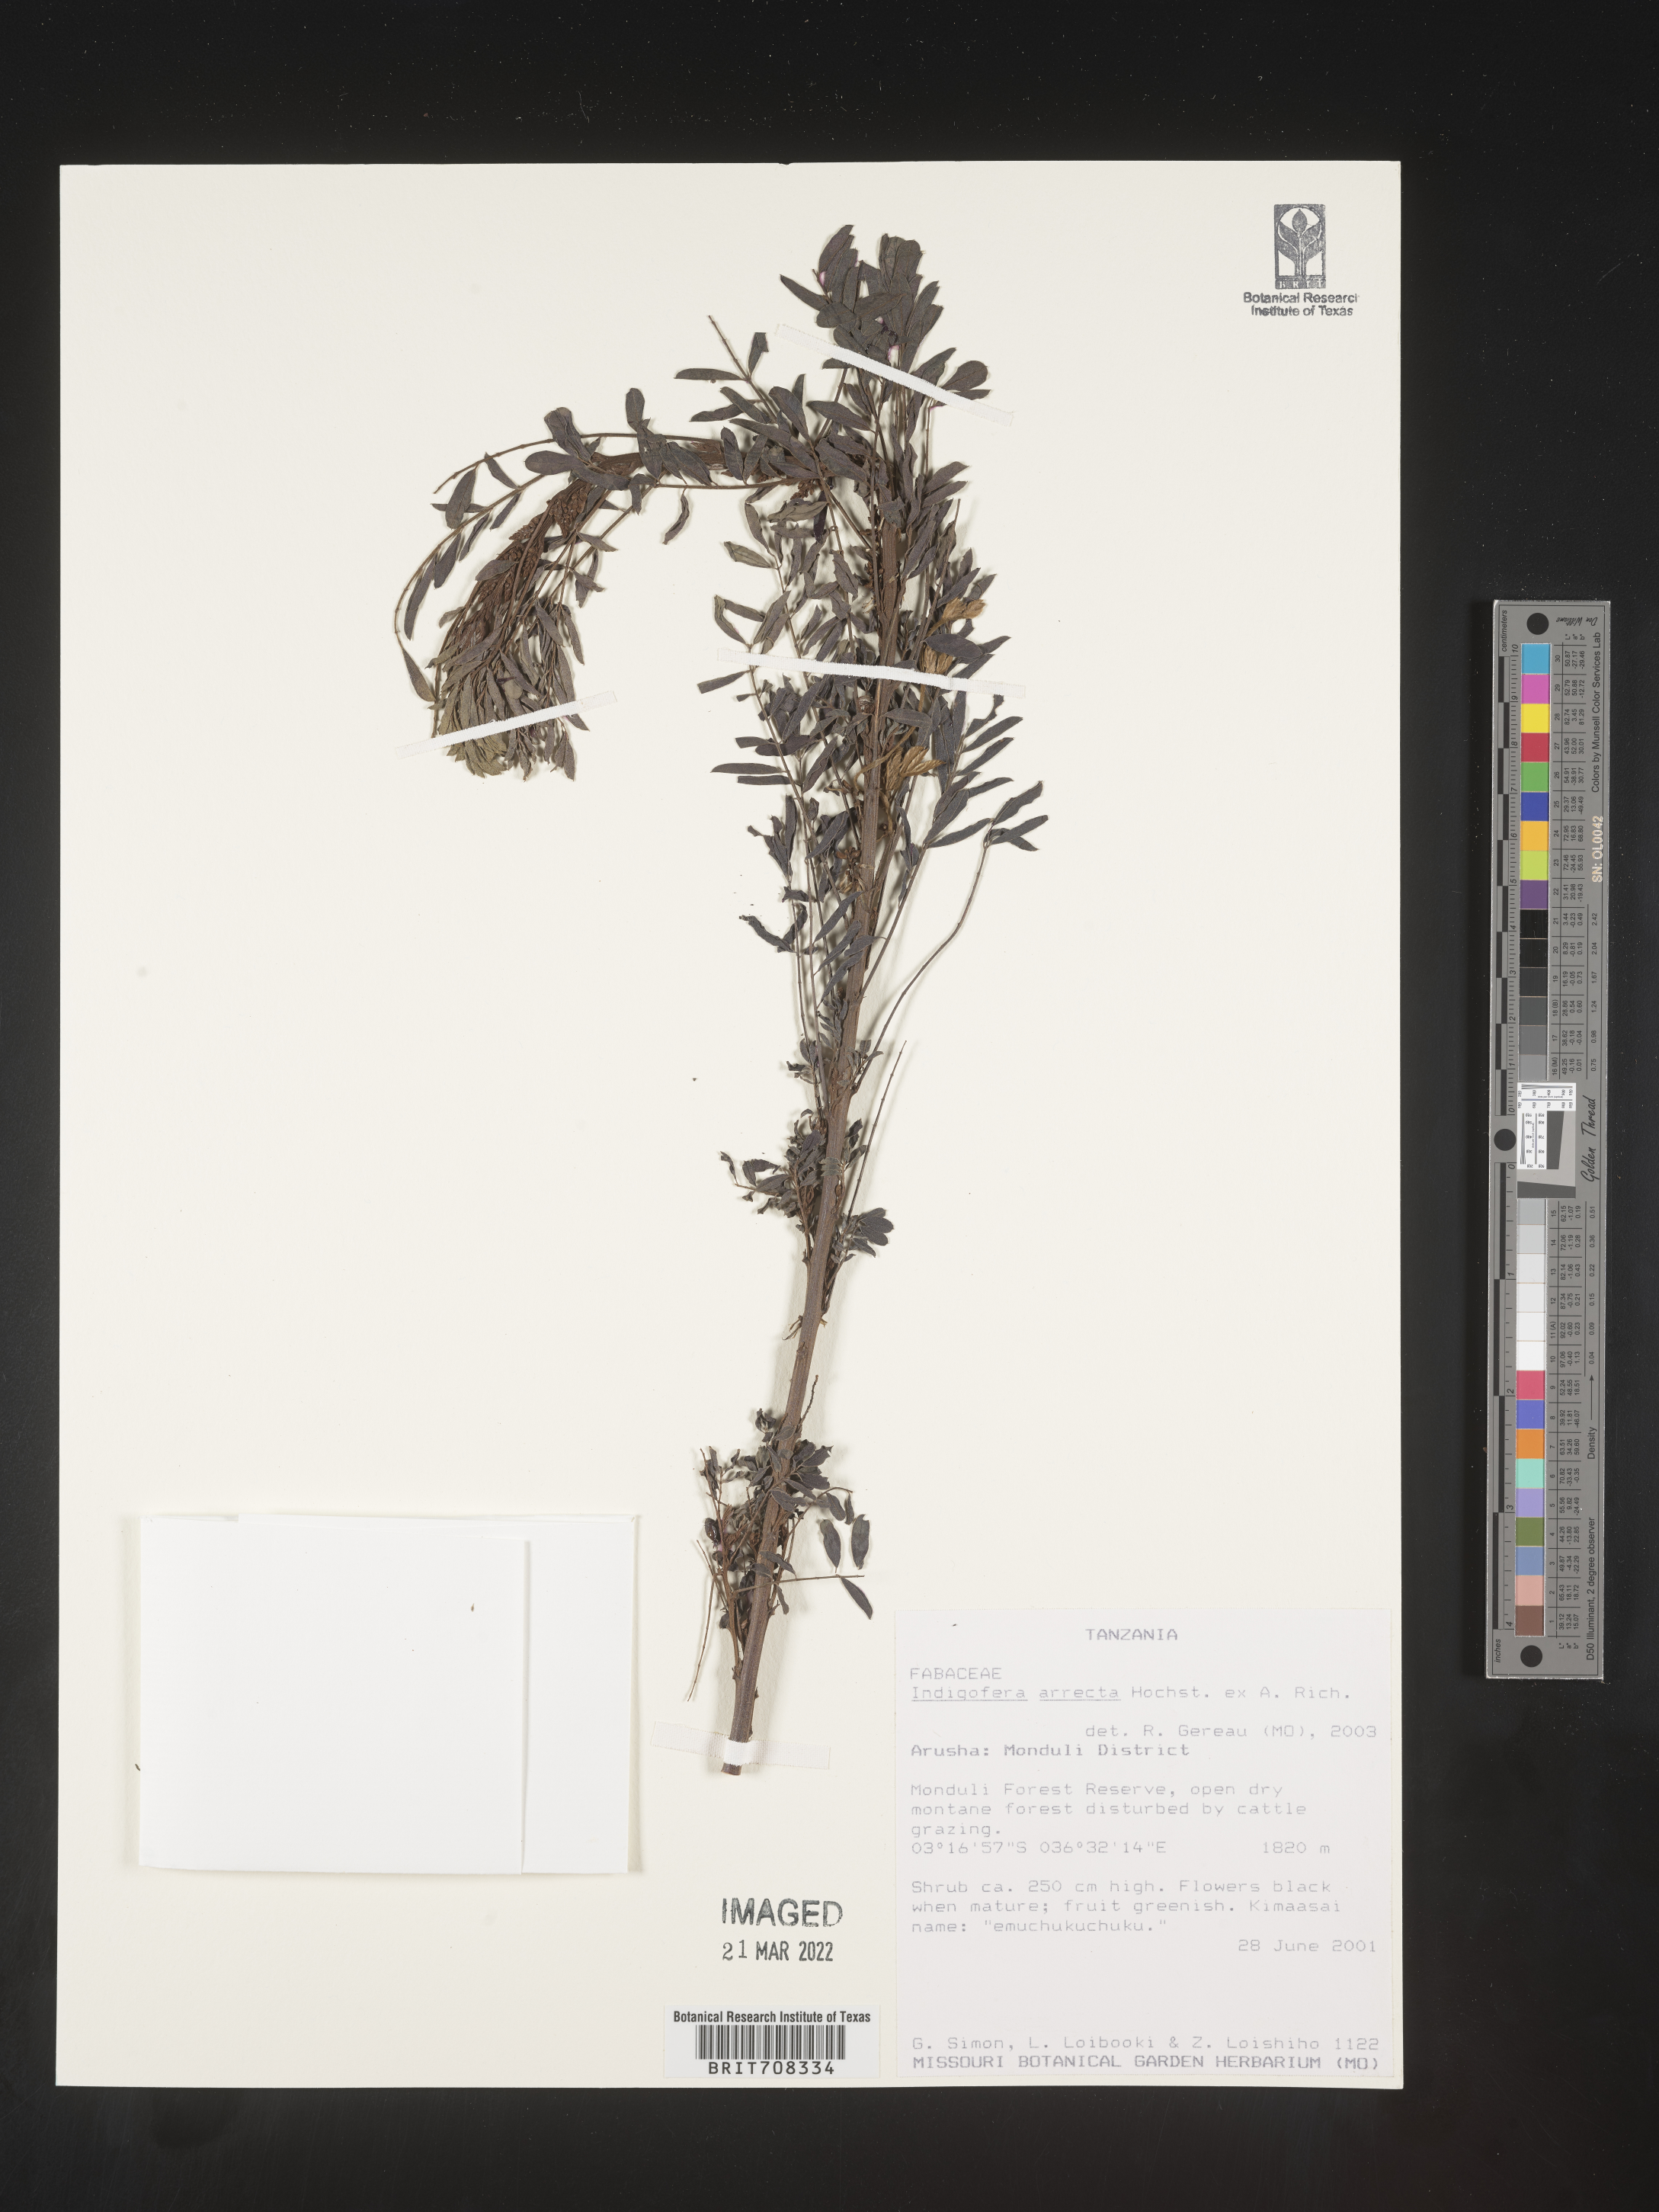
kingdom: Plantae
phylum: Tracheophyta
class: Magnoliopsida
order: Fabales
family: Fabaceae
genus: Indigofera
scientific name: Indigofera
